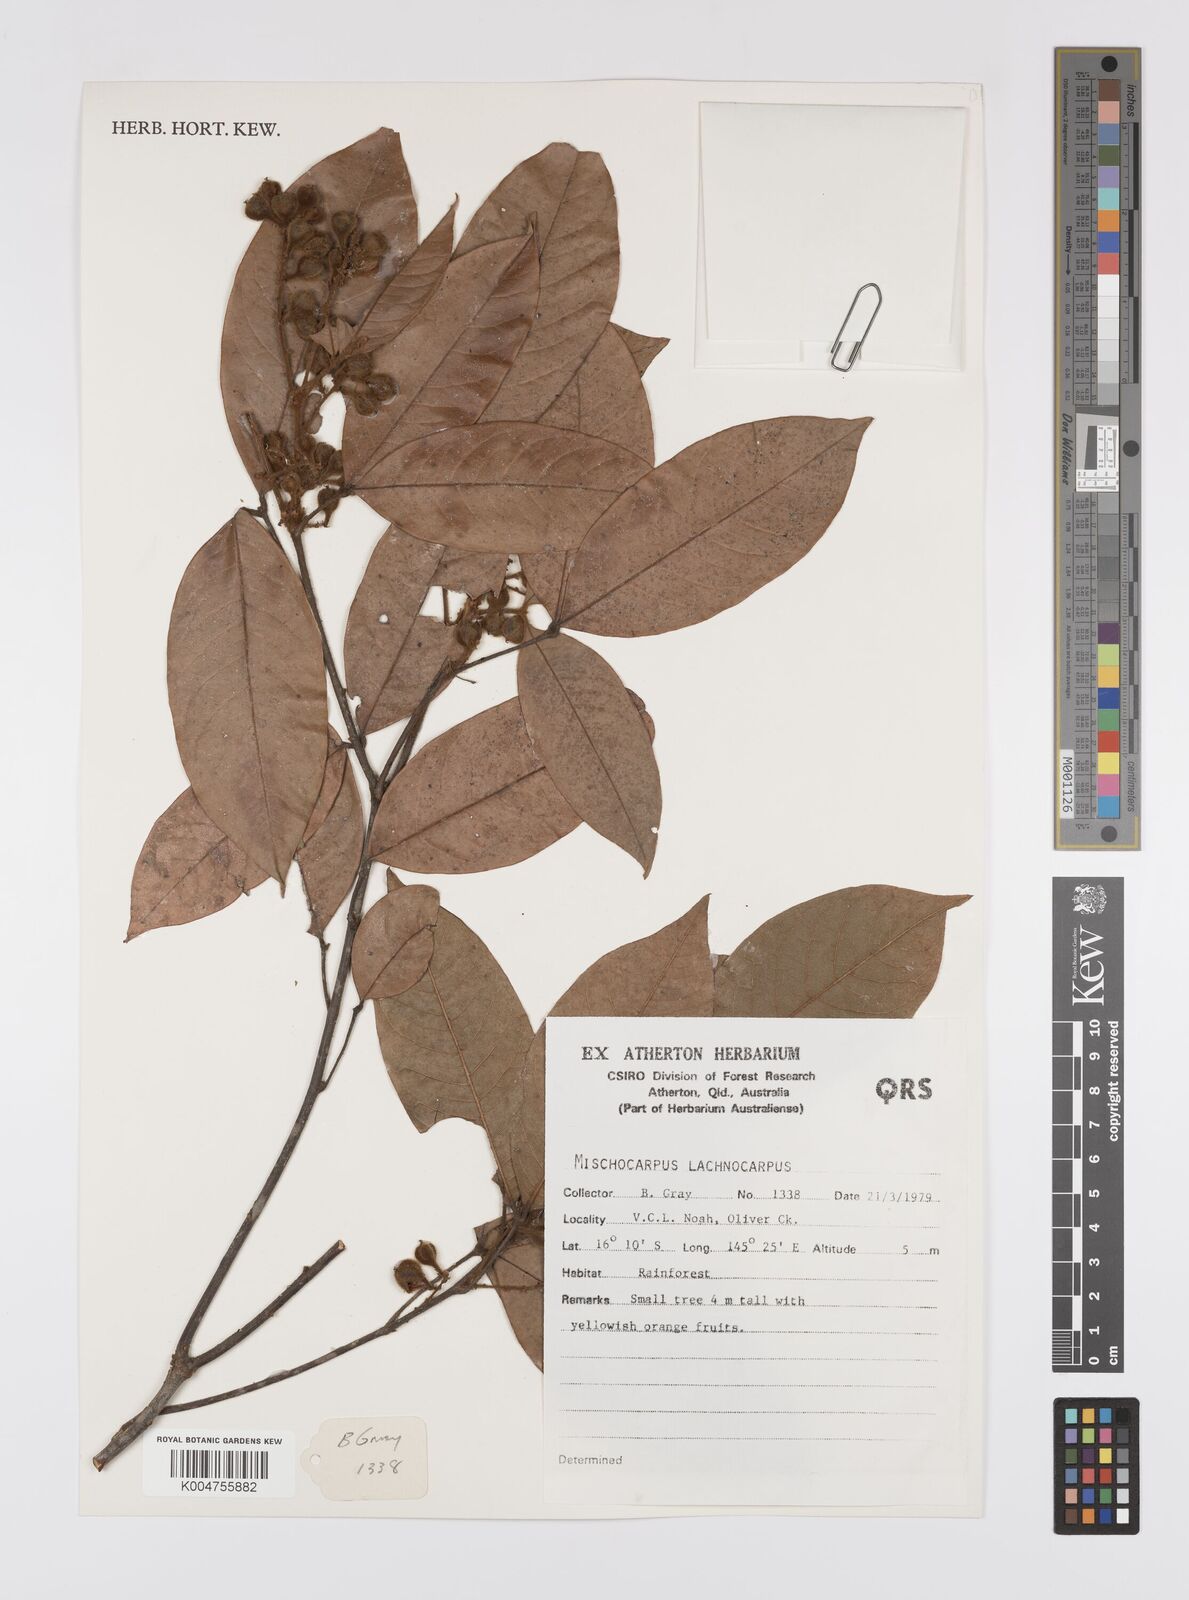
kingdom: Plantae
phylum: Tracheophyta
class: Magnoliopsida
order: Sapindales
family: Sapindaceae
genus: Mischocarpus
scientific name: Mischocarpus lachnocarpus
